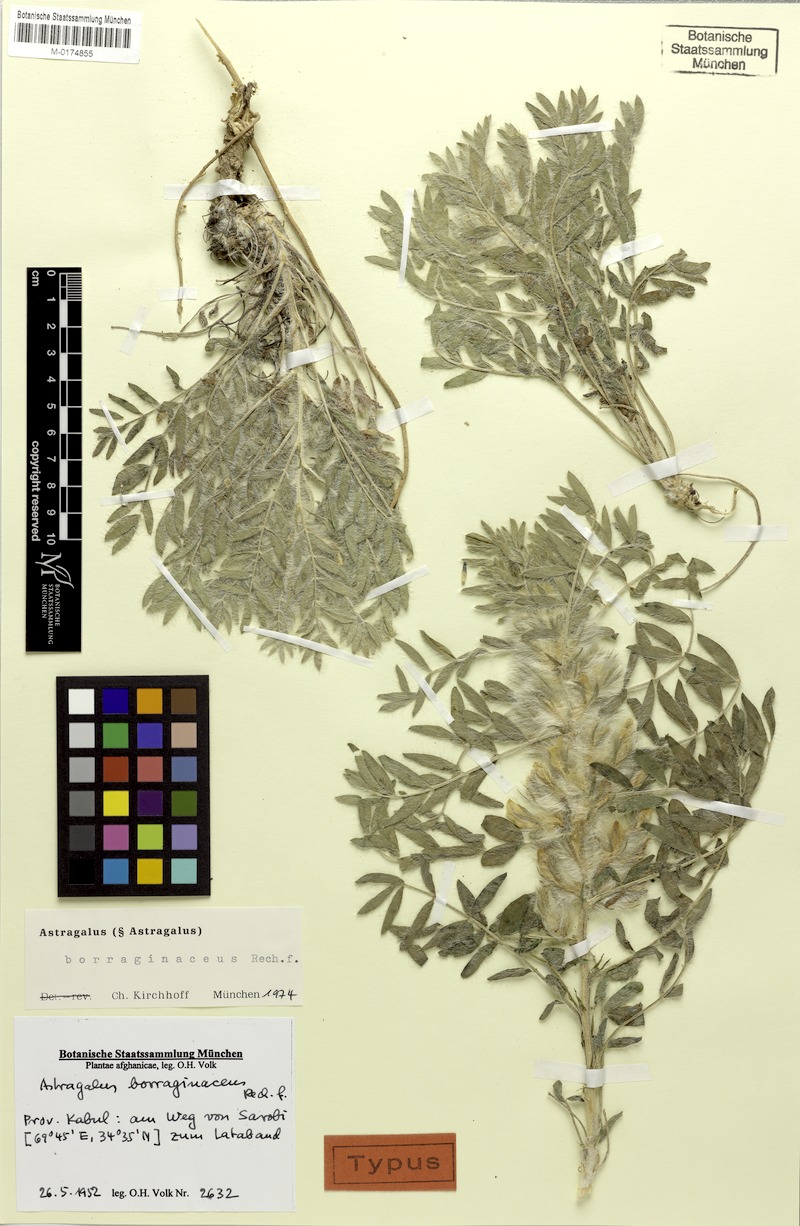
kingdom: Plantae
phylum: Tracheophyta
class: Magnoliopsida
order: Fabales
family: Fabaceae
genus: Astragalus
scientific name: Astragalus borraginaceus
